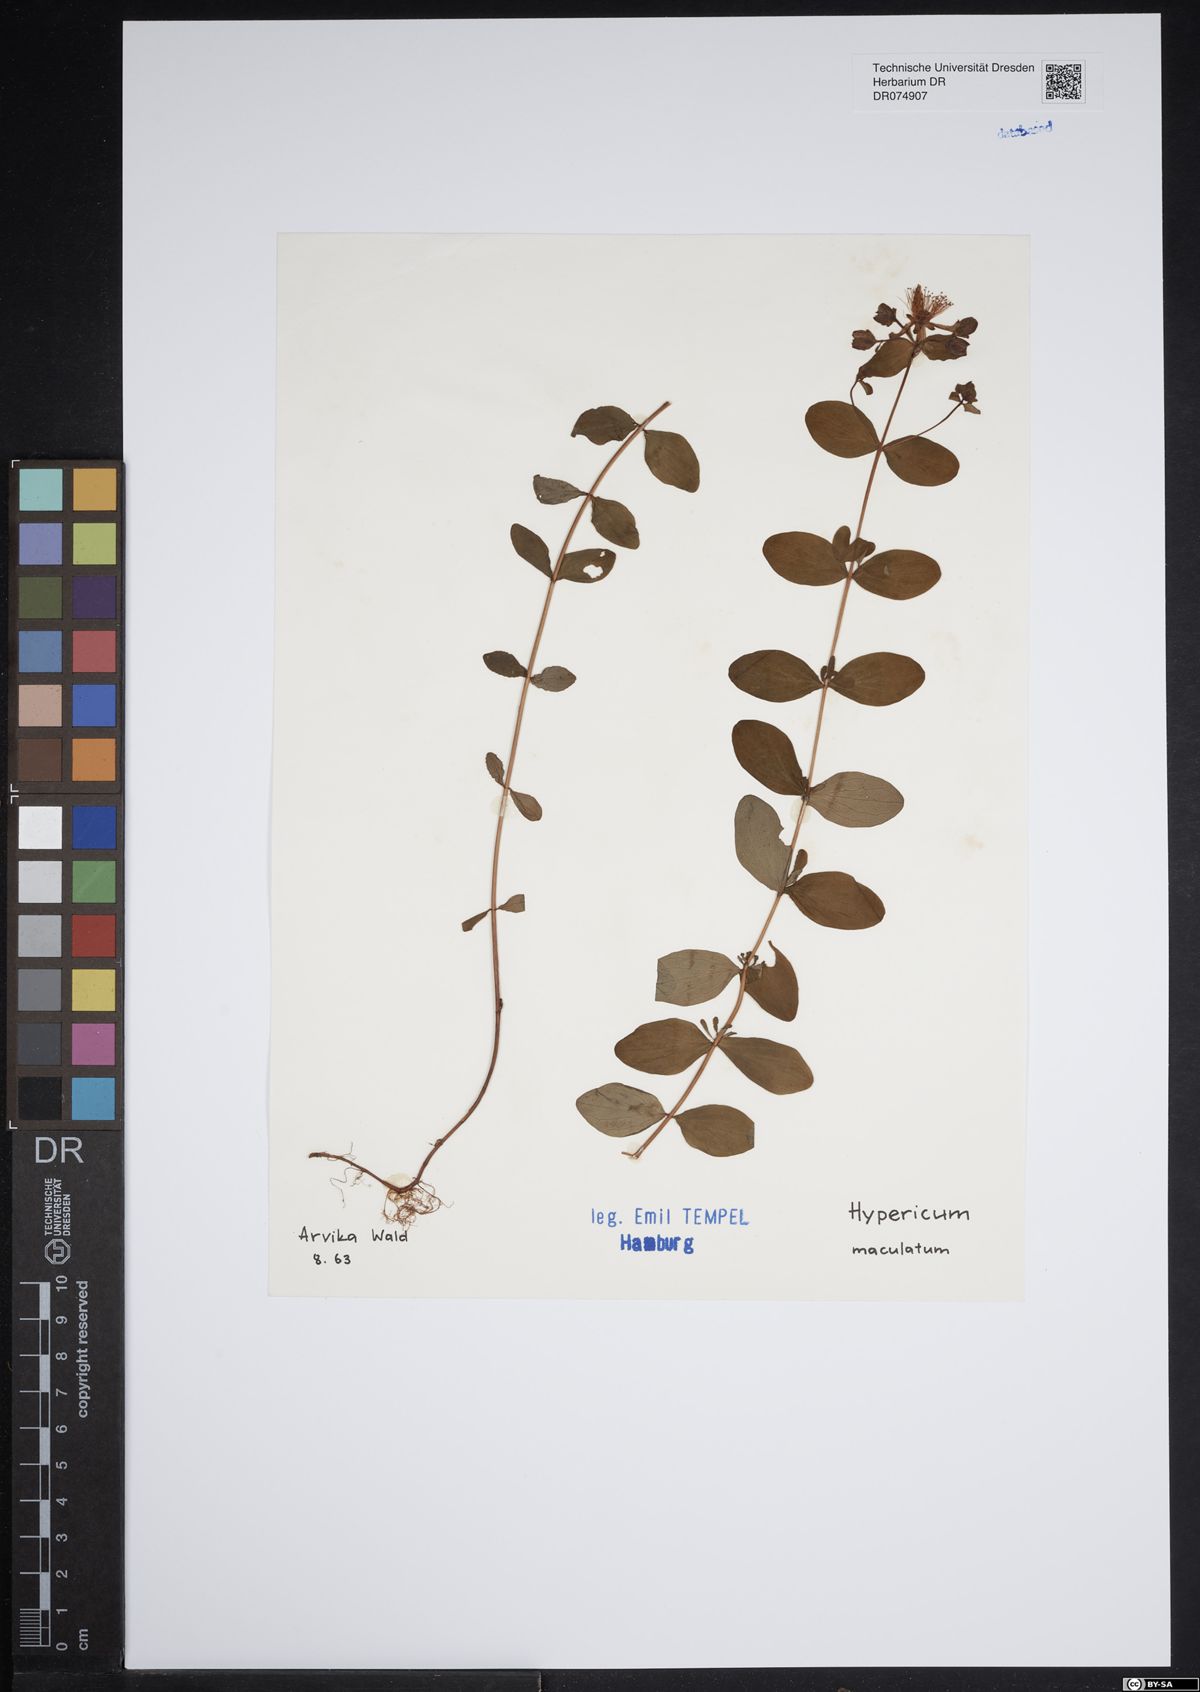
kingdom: Plantae
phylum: Tracheophyta
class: Magnoliopsida
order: Malpighiales
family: Hypericaceae
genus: Hypericum
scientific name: Hypericum maculatum
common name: Imperforate st. john's-wort
